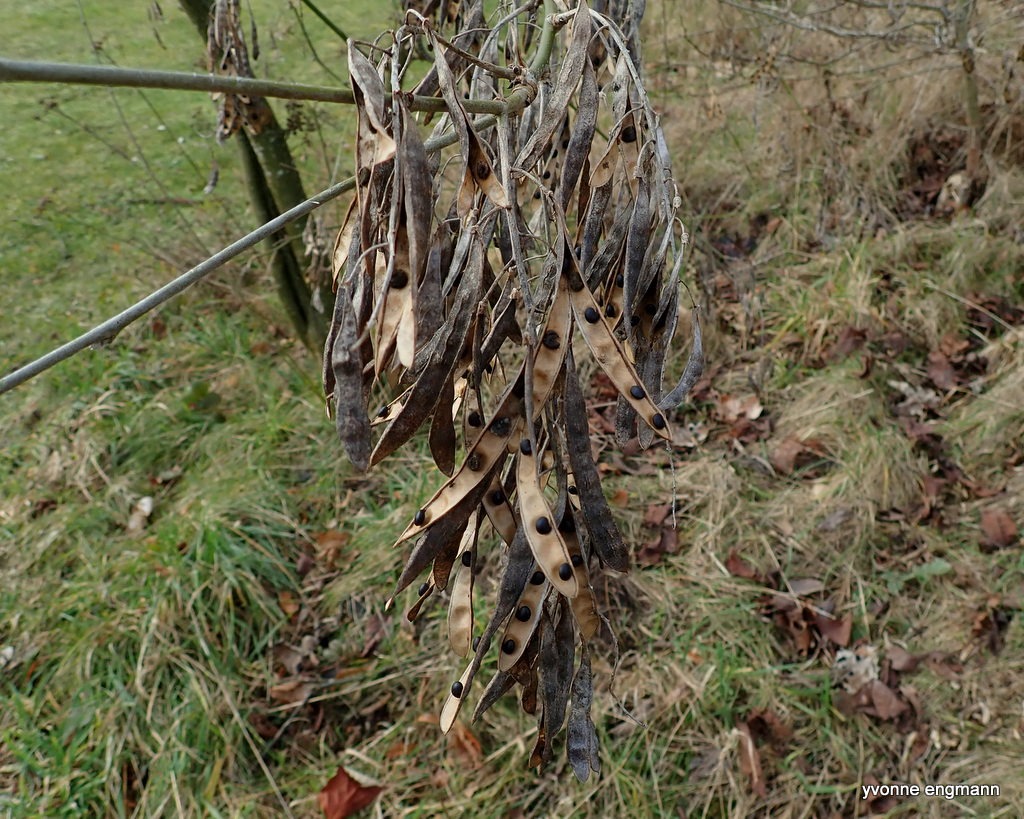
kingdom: Plantae
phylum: Tracheophyta
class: Magnoliopsida
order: Fabales
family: Fabaceae
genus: Laburnum
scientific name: Laburnum anagyroides
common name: Guldregn
